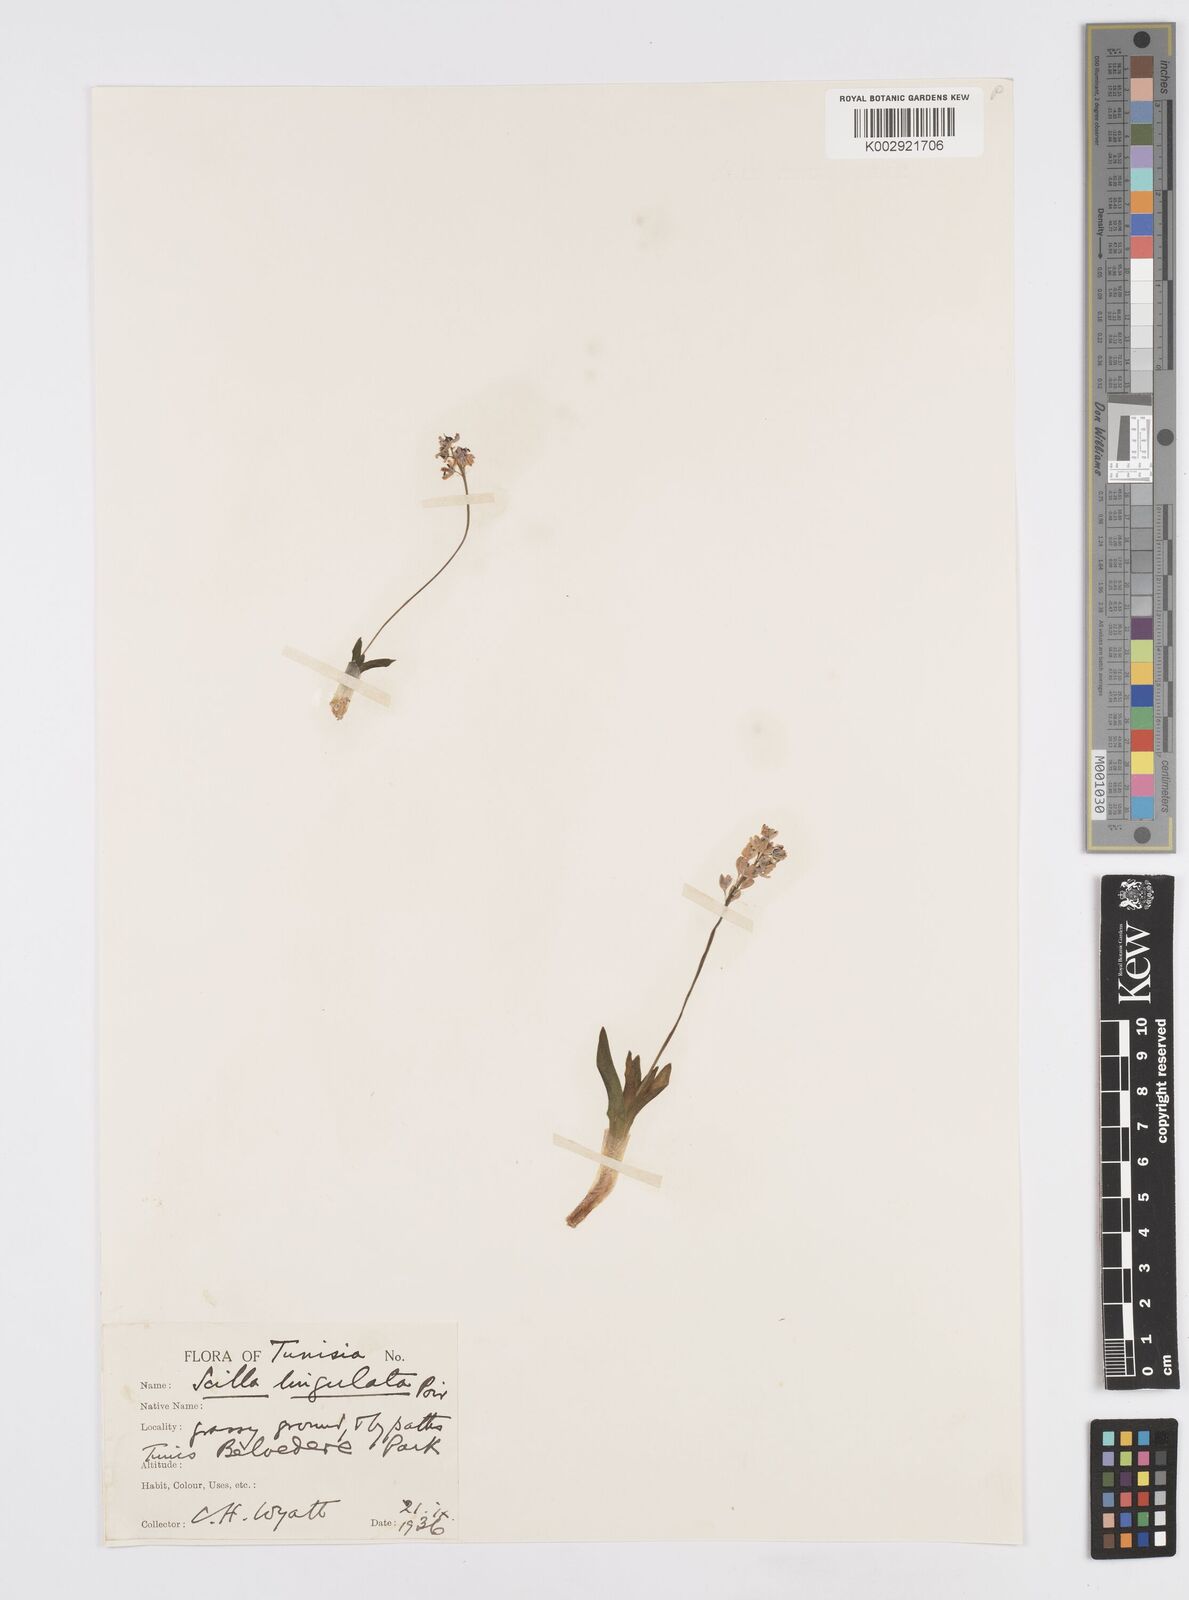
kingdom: Plantae
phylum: Tracheophyta
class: Liliopsida
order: Asparagales
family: Asparagaceae
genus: Hyacinthoides
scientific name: Hyacinthoides lingulata
